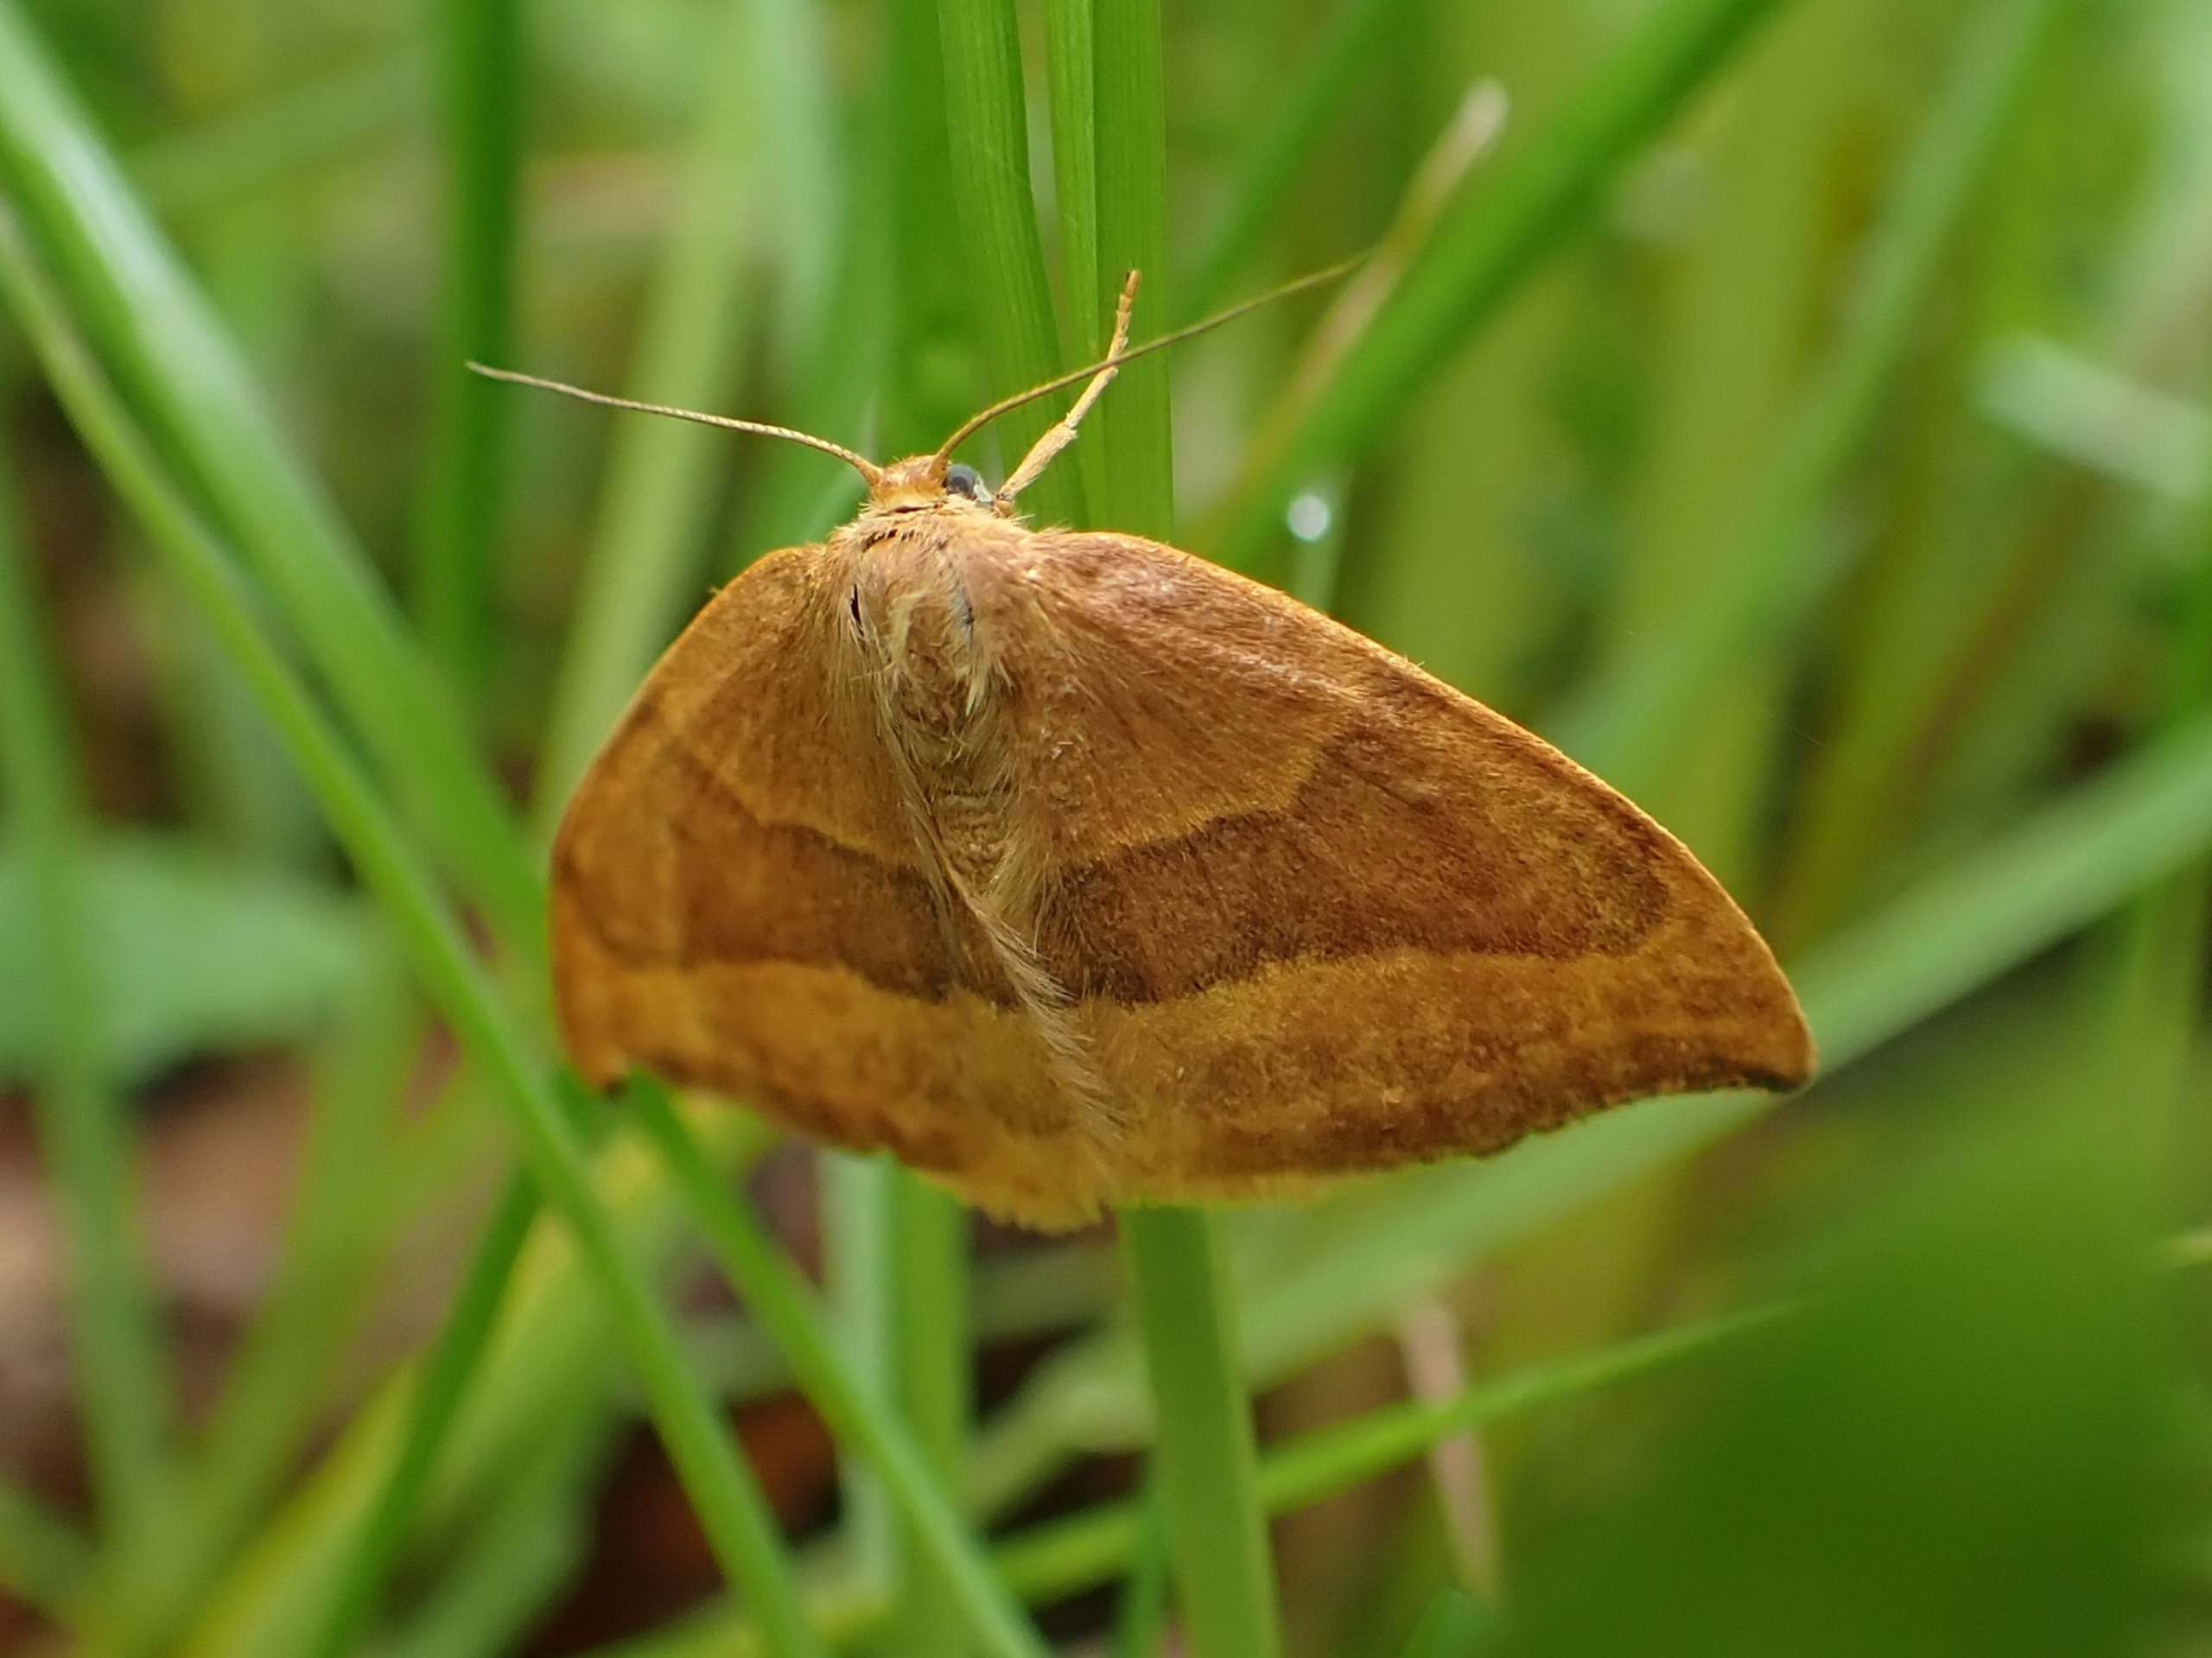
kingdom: Animalia
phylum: Arthropoda
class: Insecta
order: Lepidoptera
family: Drepanidae
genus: Watsonalla
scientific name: Watsonalla cultraria
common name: Bøgeseglvinge
